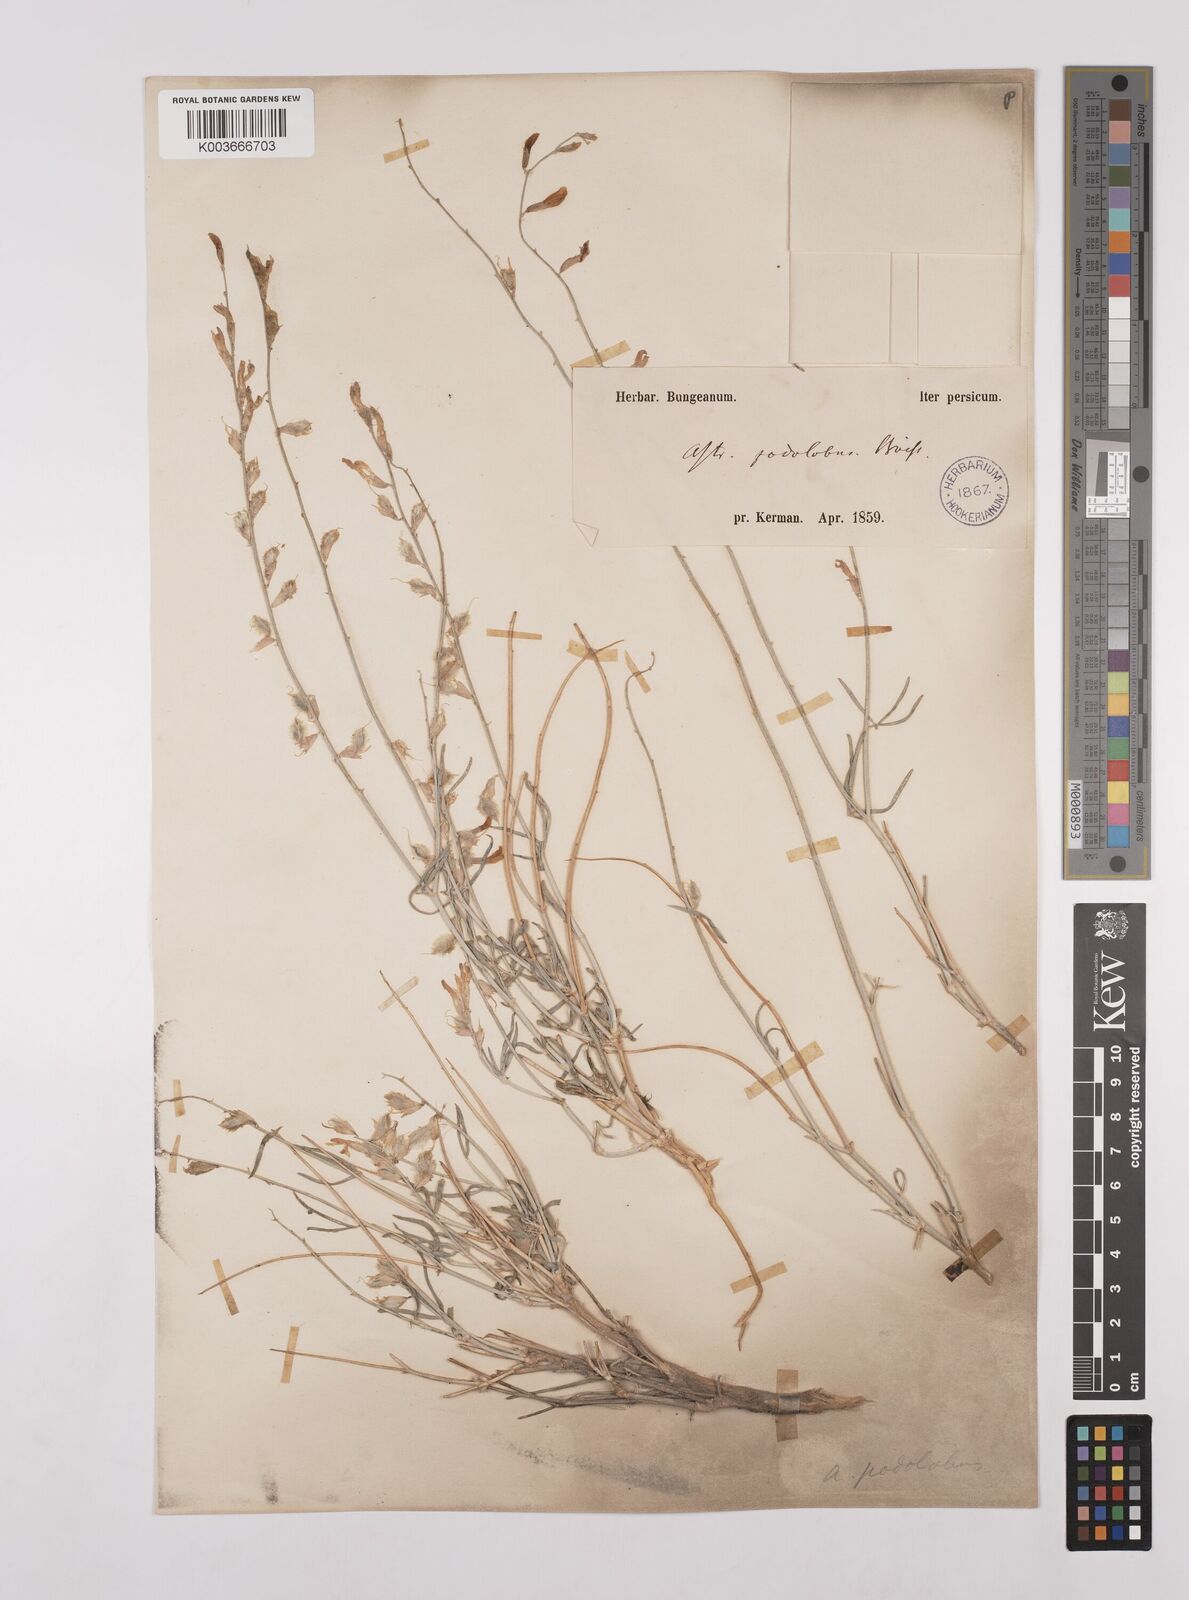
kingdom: Plantae
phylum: Tracheophyta
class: Magnoliopsida
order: Fabales
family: Fabaceae
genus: Astragalus
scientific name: Astragalus podolobus
